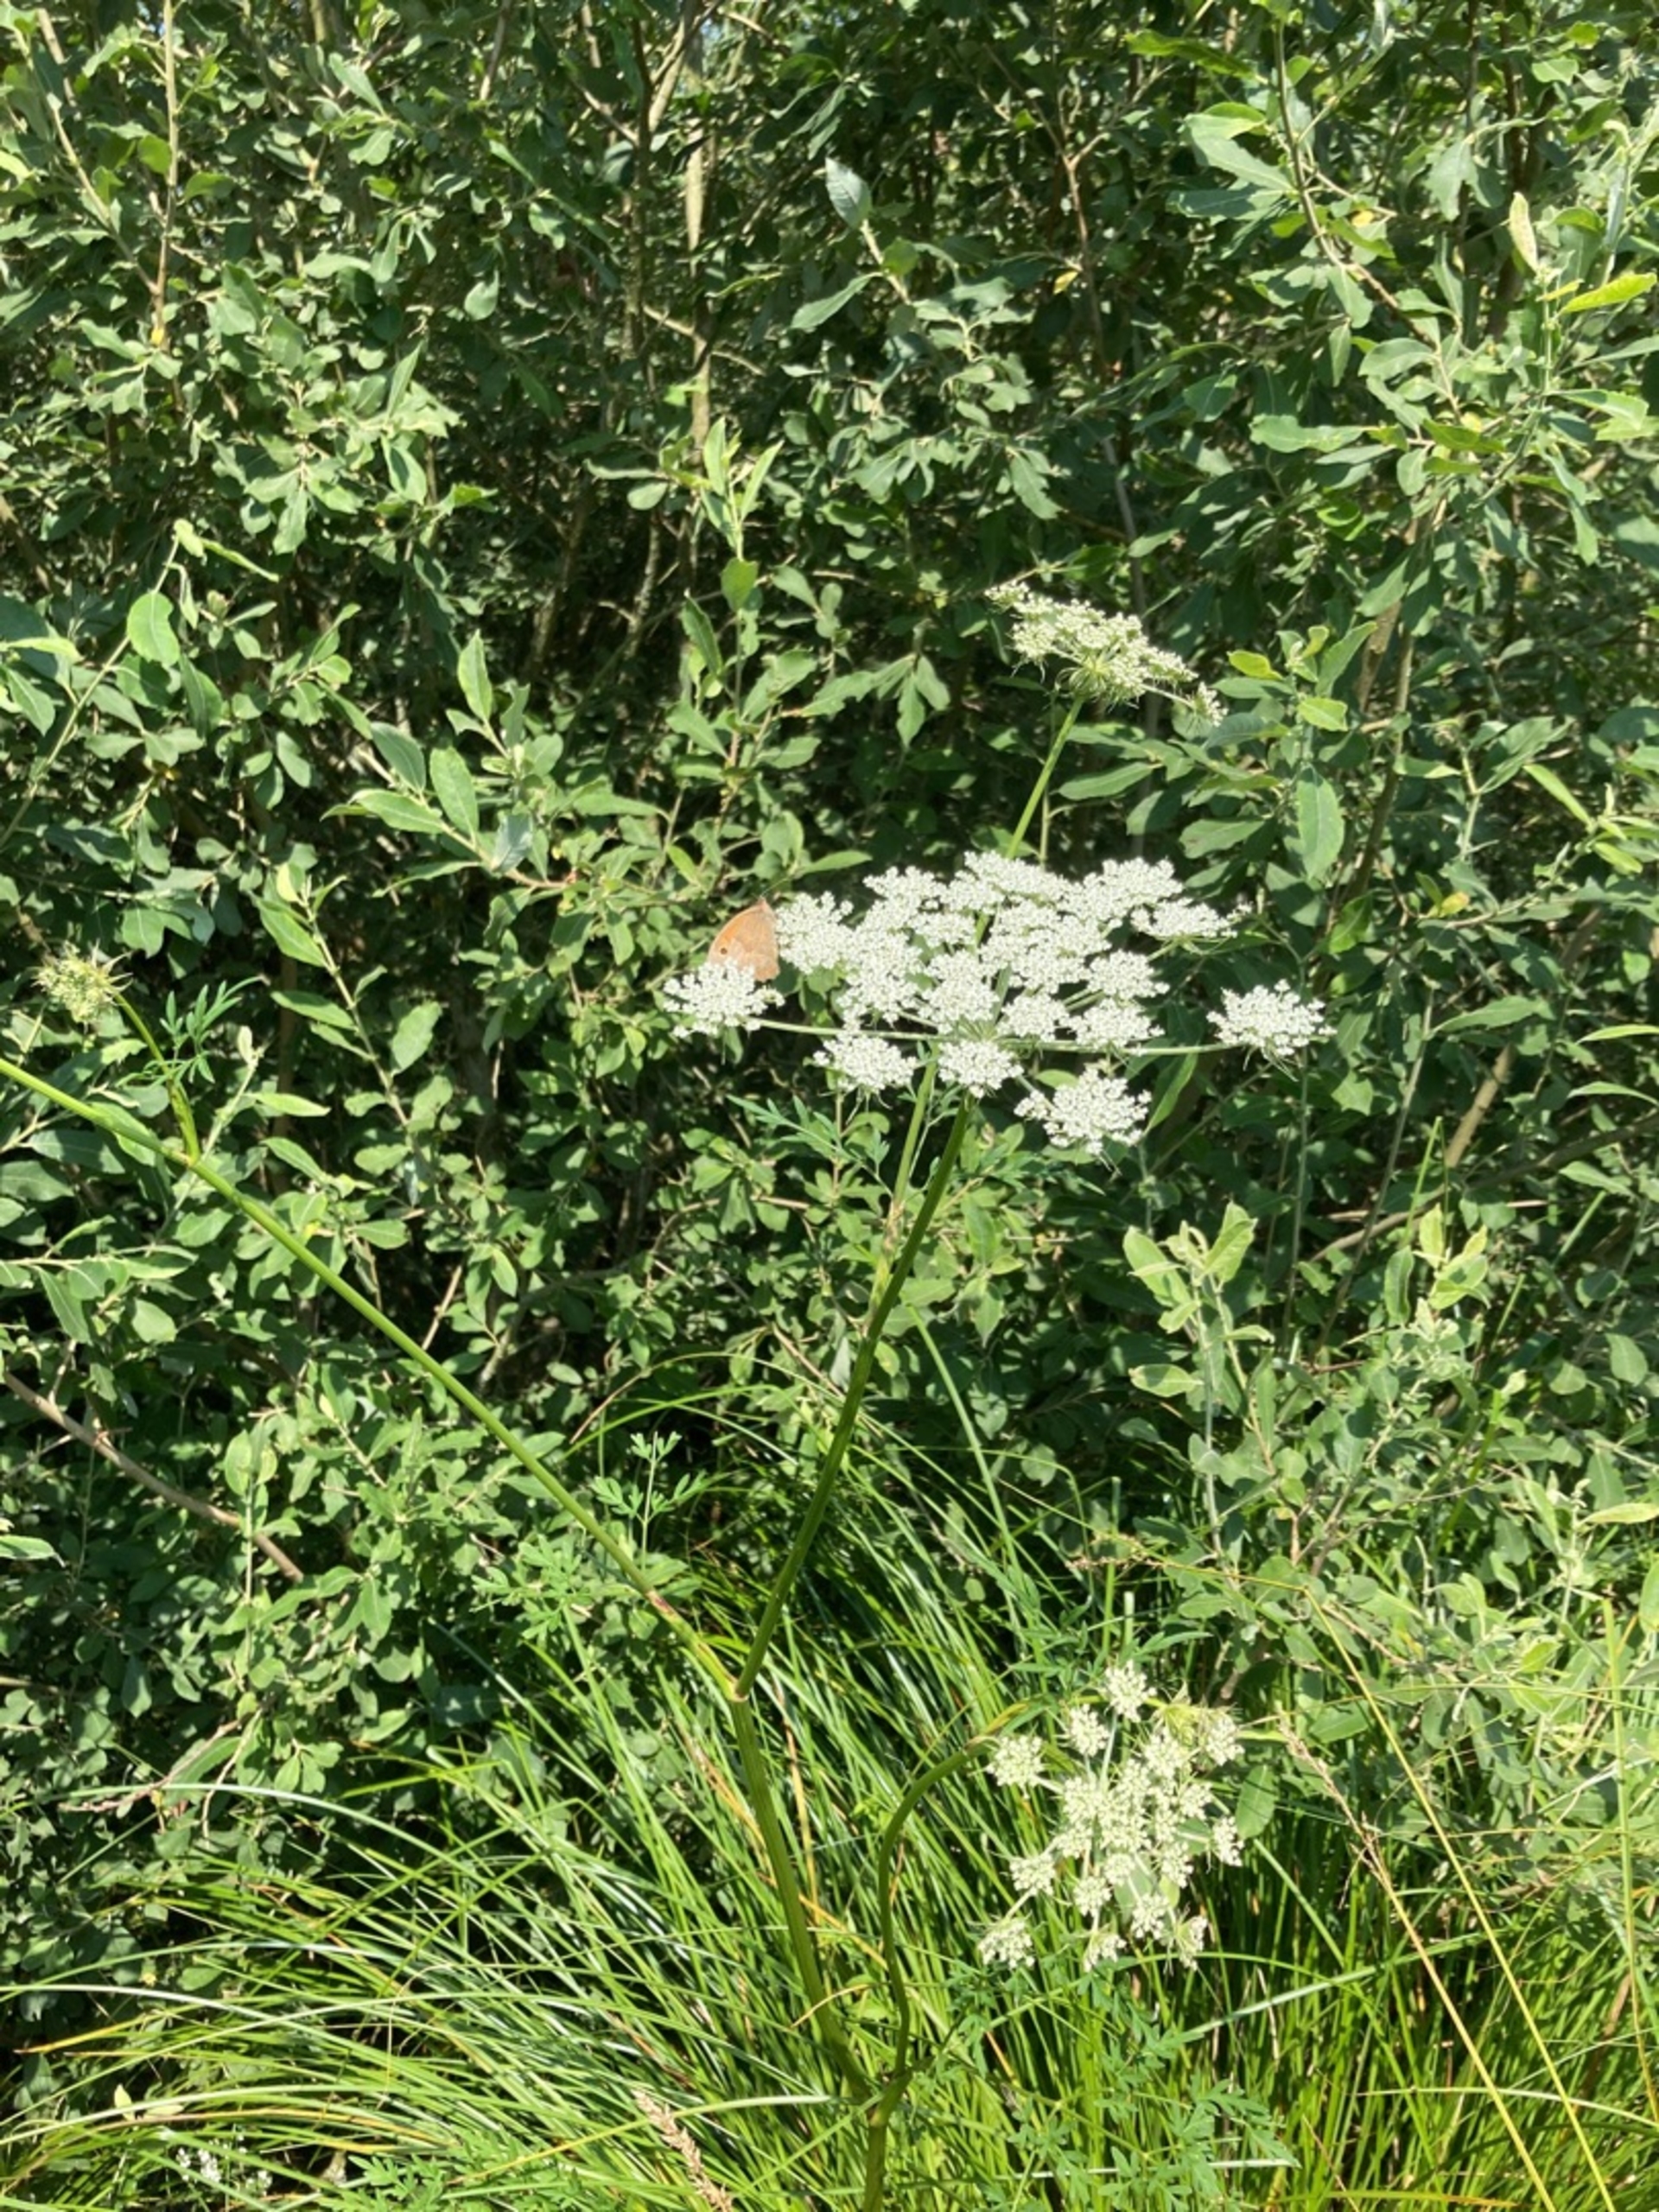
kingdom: Plantae
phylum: Tracheophyta
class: Magnoliopsida
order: Apiales
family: Apiaceae
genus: Thysselinum
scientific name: Thysselinum palustre
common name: Kær-svovlrod
